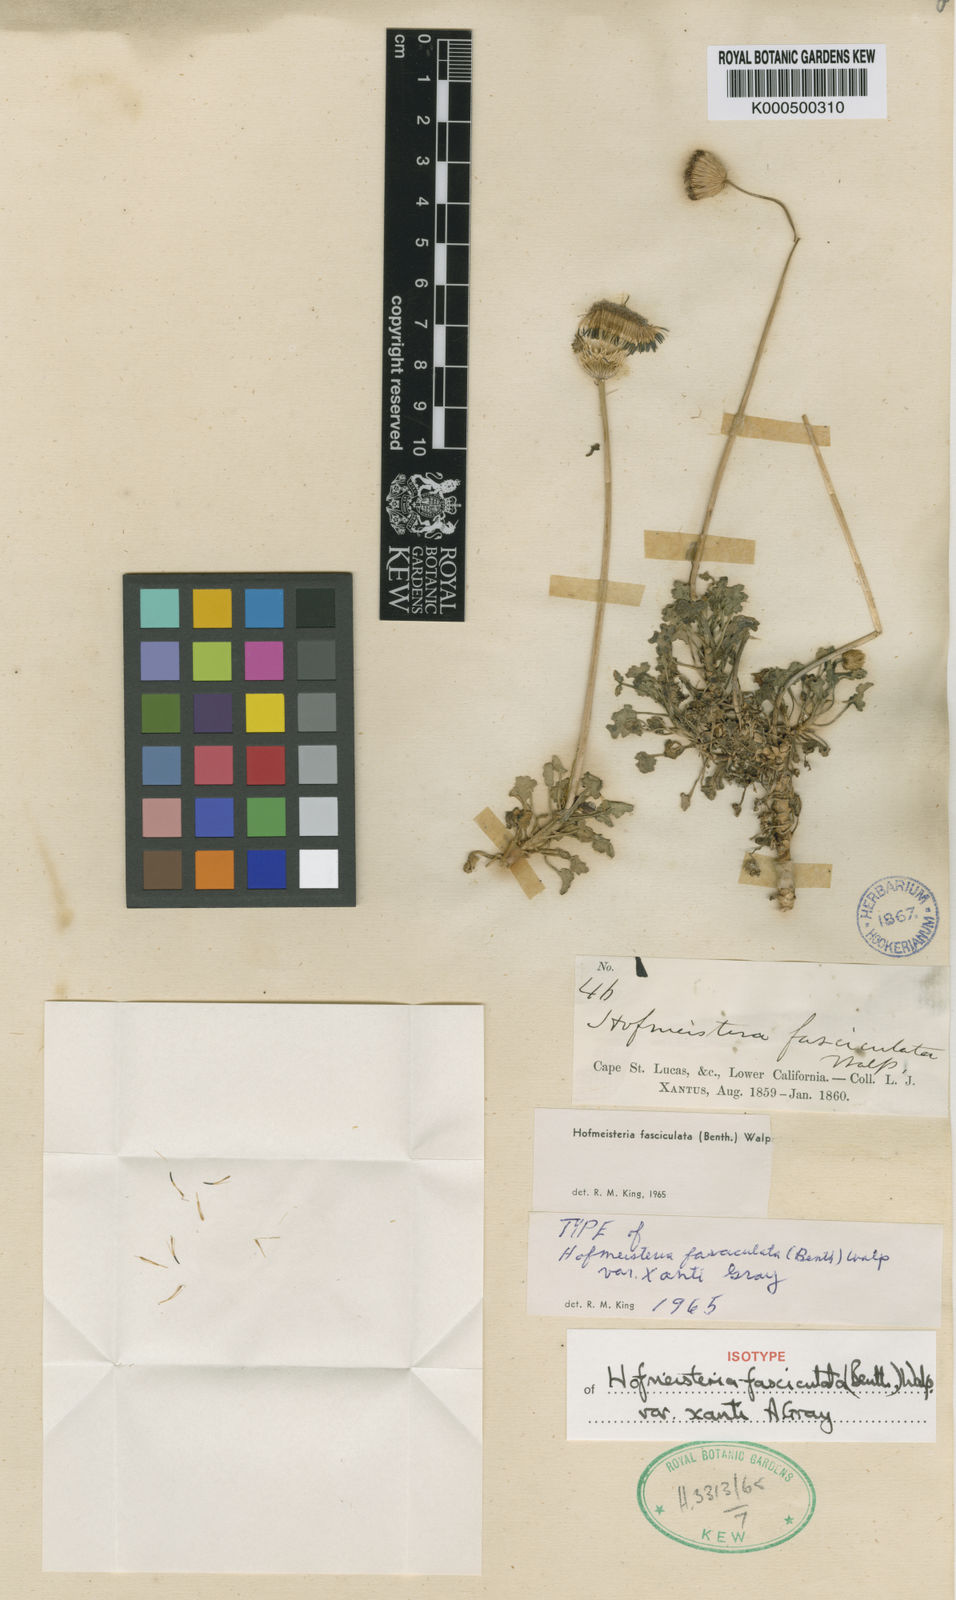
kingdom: Plantae
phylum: Tracheophyta
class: Magnoliopsida
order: Asterales
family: Asteraceae
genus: Hofmeisteria
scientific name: Hofmeisteria fasciculata
